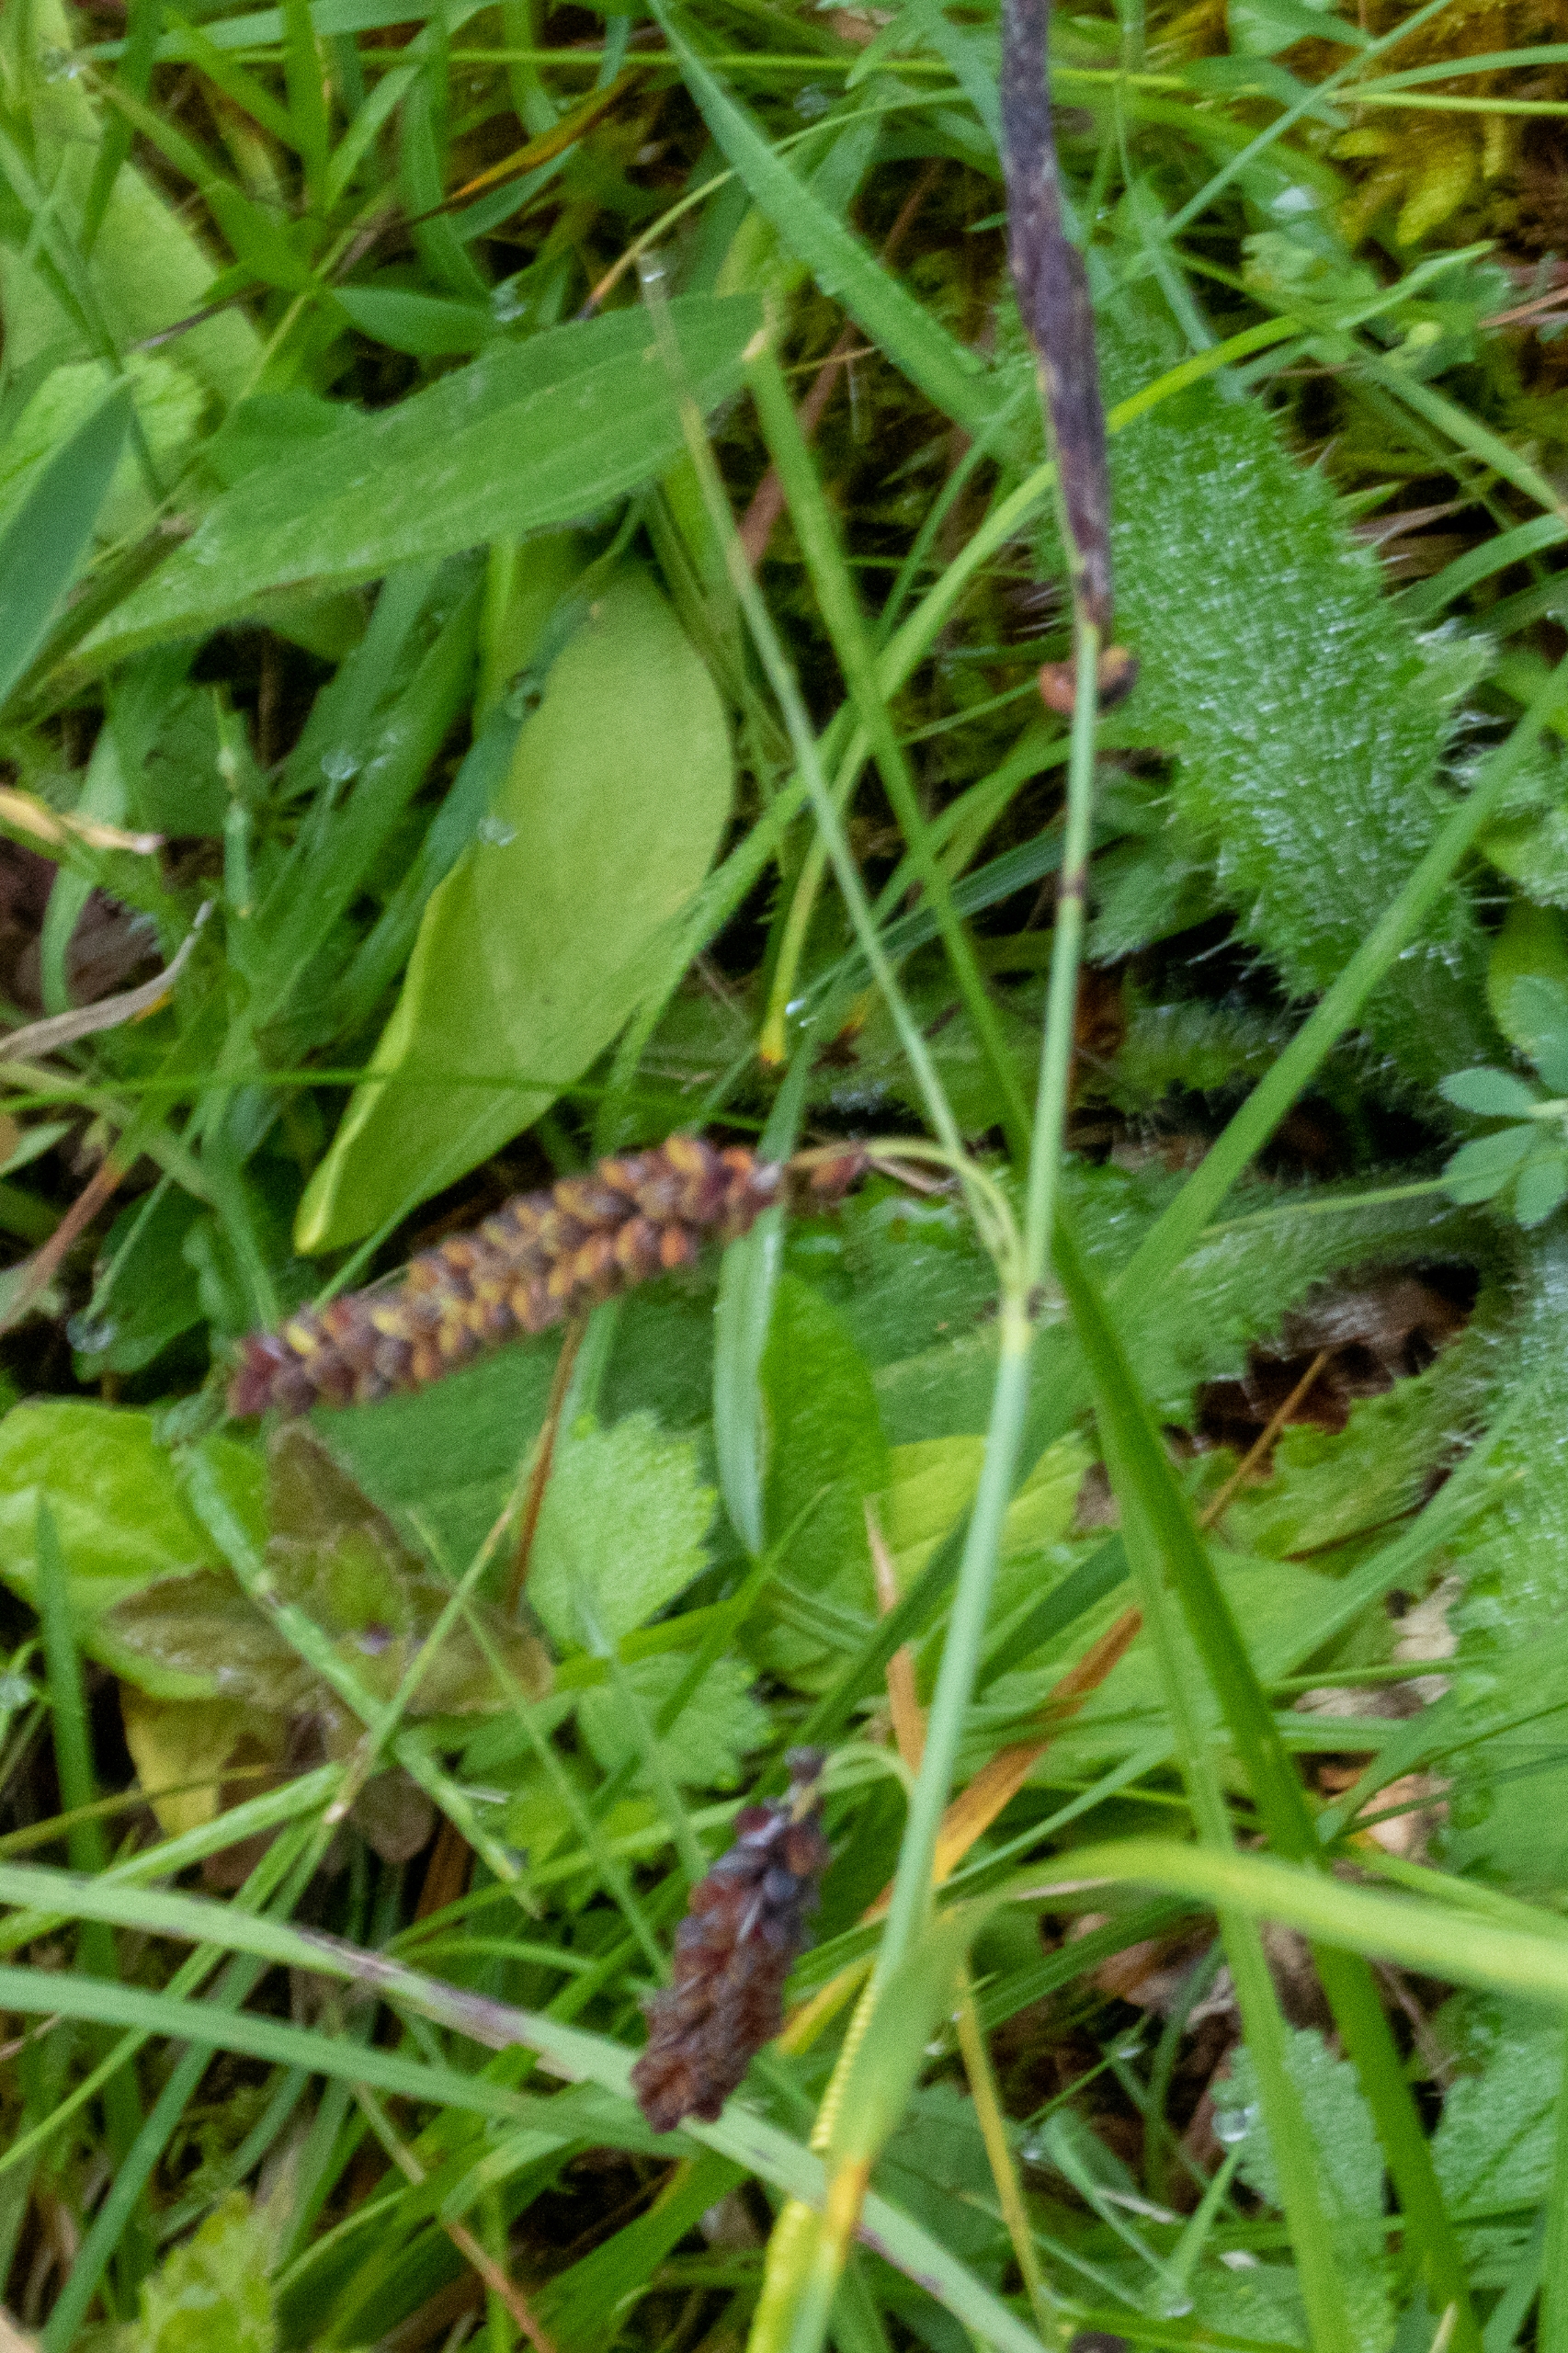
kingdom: Plantae
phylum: Tracheophyta
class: Liliopsida
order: Poales
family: Cyperaceae
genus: Carex
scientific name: Carex flacca
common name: Blågrøn star
